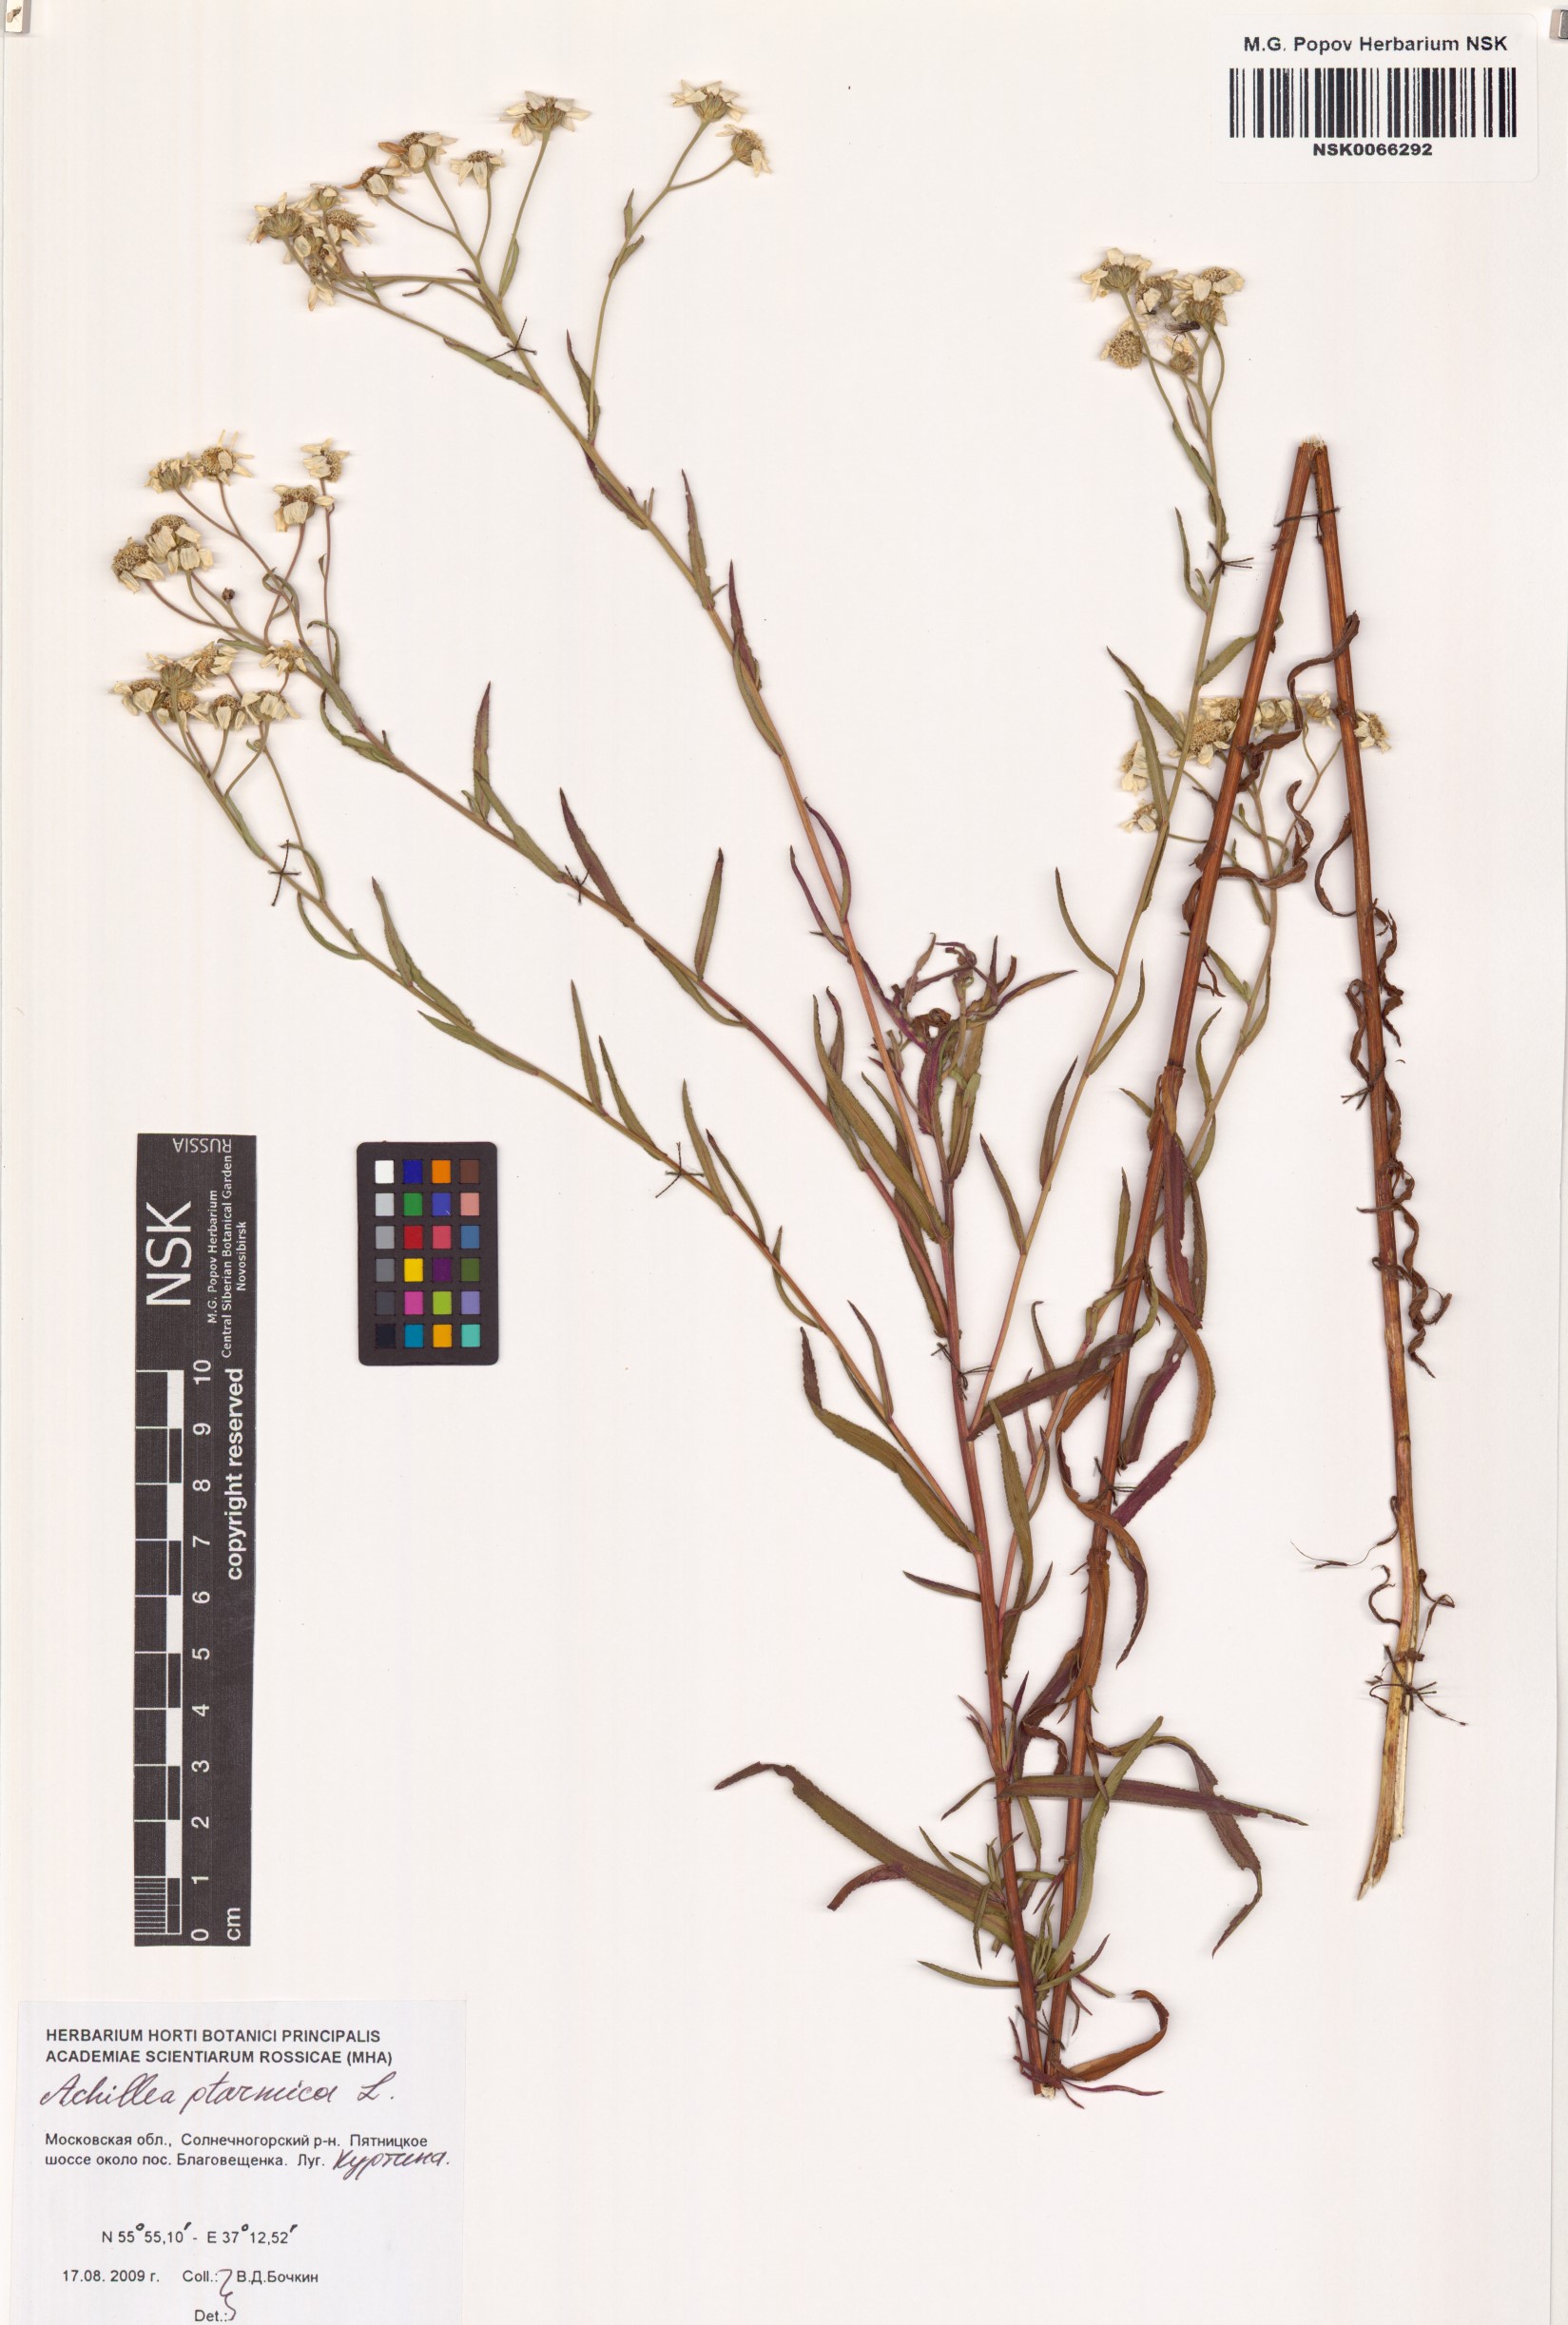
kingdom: Plantae
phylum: Tracheophyta
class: Magnoliopsida
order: Asterales
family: Asteraceae
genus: Achillea
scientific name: Achillea ptarmica
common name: Sneezeweed
